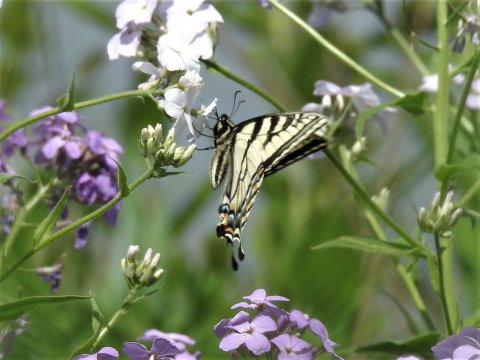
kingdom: Animalia
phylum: Arthropoda
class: Insecta
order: Lepidoptera
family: Papilionidae
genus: Pterourus
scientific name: Pterourus canadensis
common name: Canadian Tiger Swallowtail
